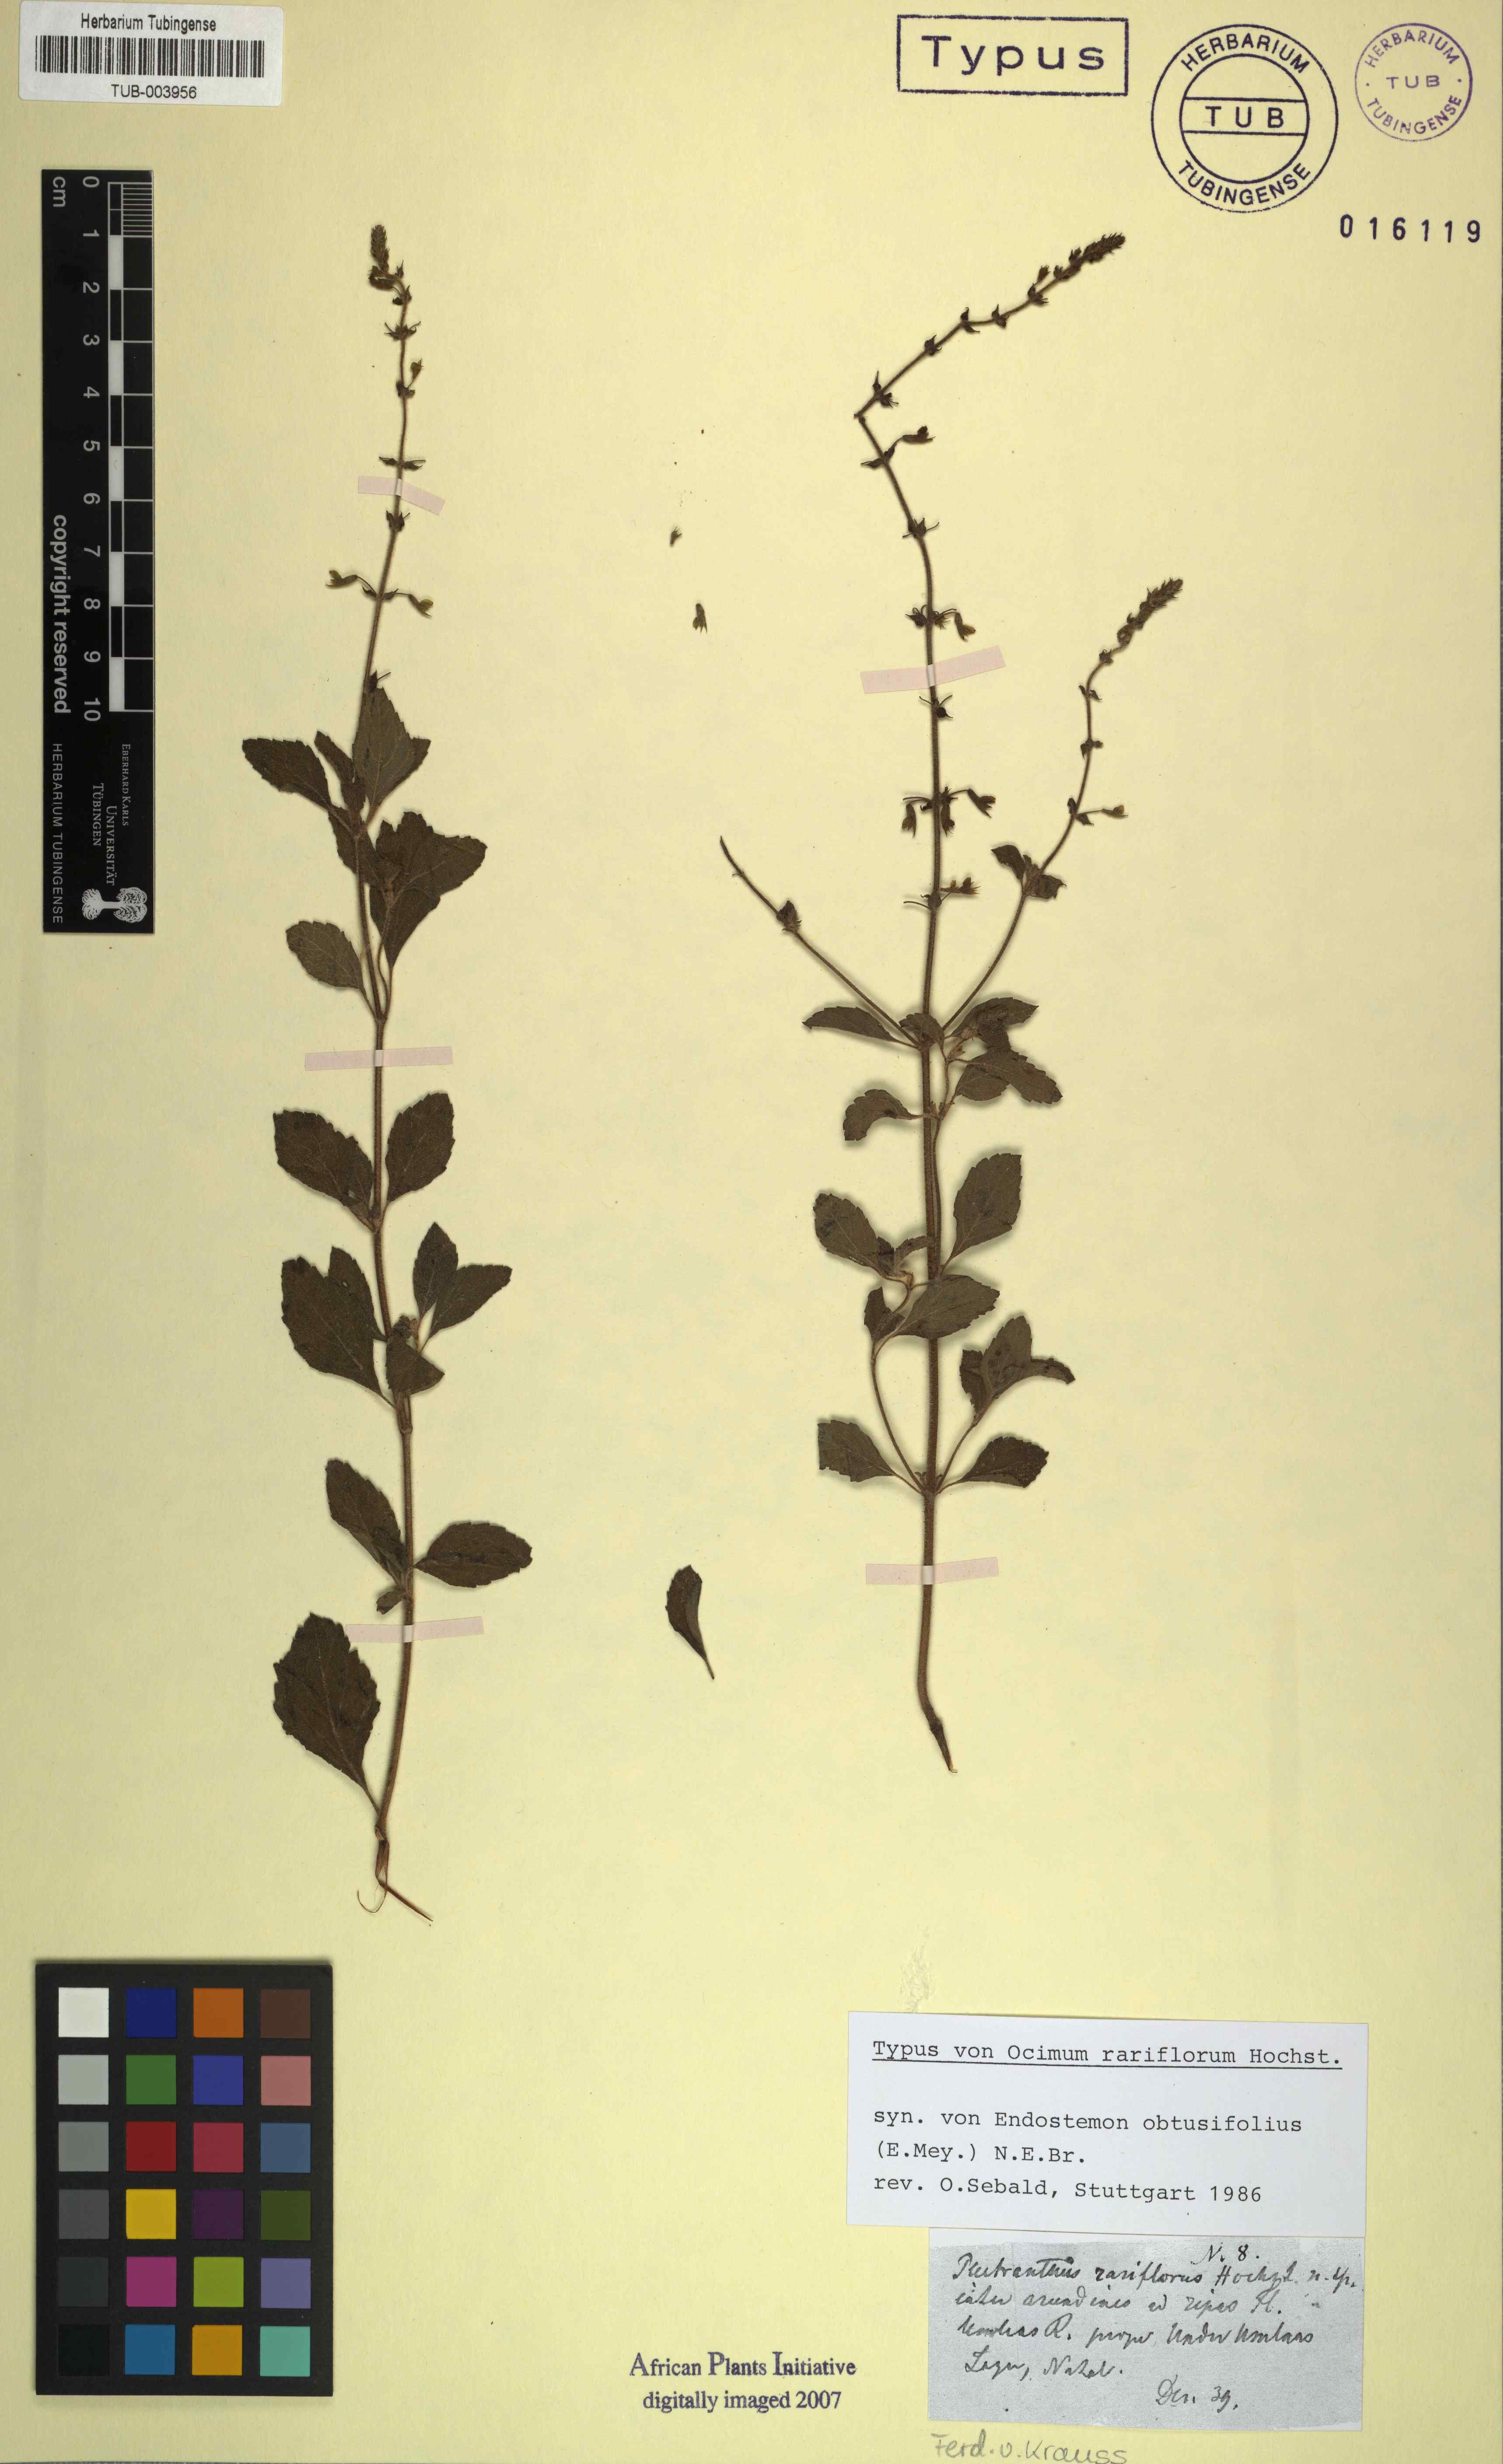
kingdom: Plantae
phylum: Tracheophyta
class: Magnoliopsida
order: Lamiales
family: Lamiaceae
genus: Endostemon
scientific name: Endostemon obtusifolius
